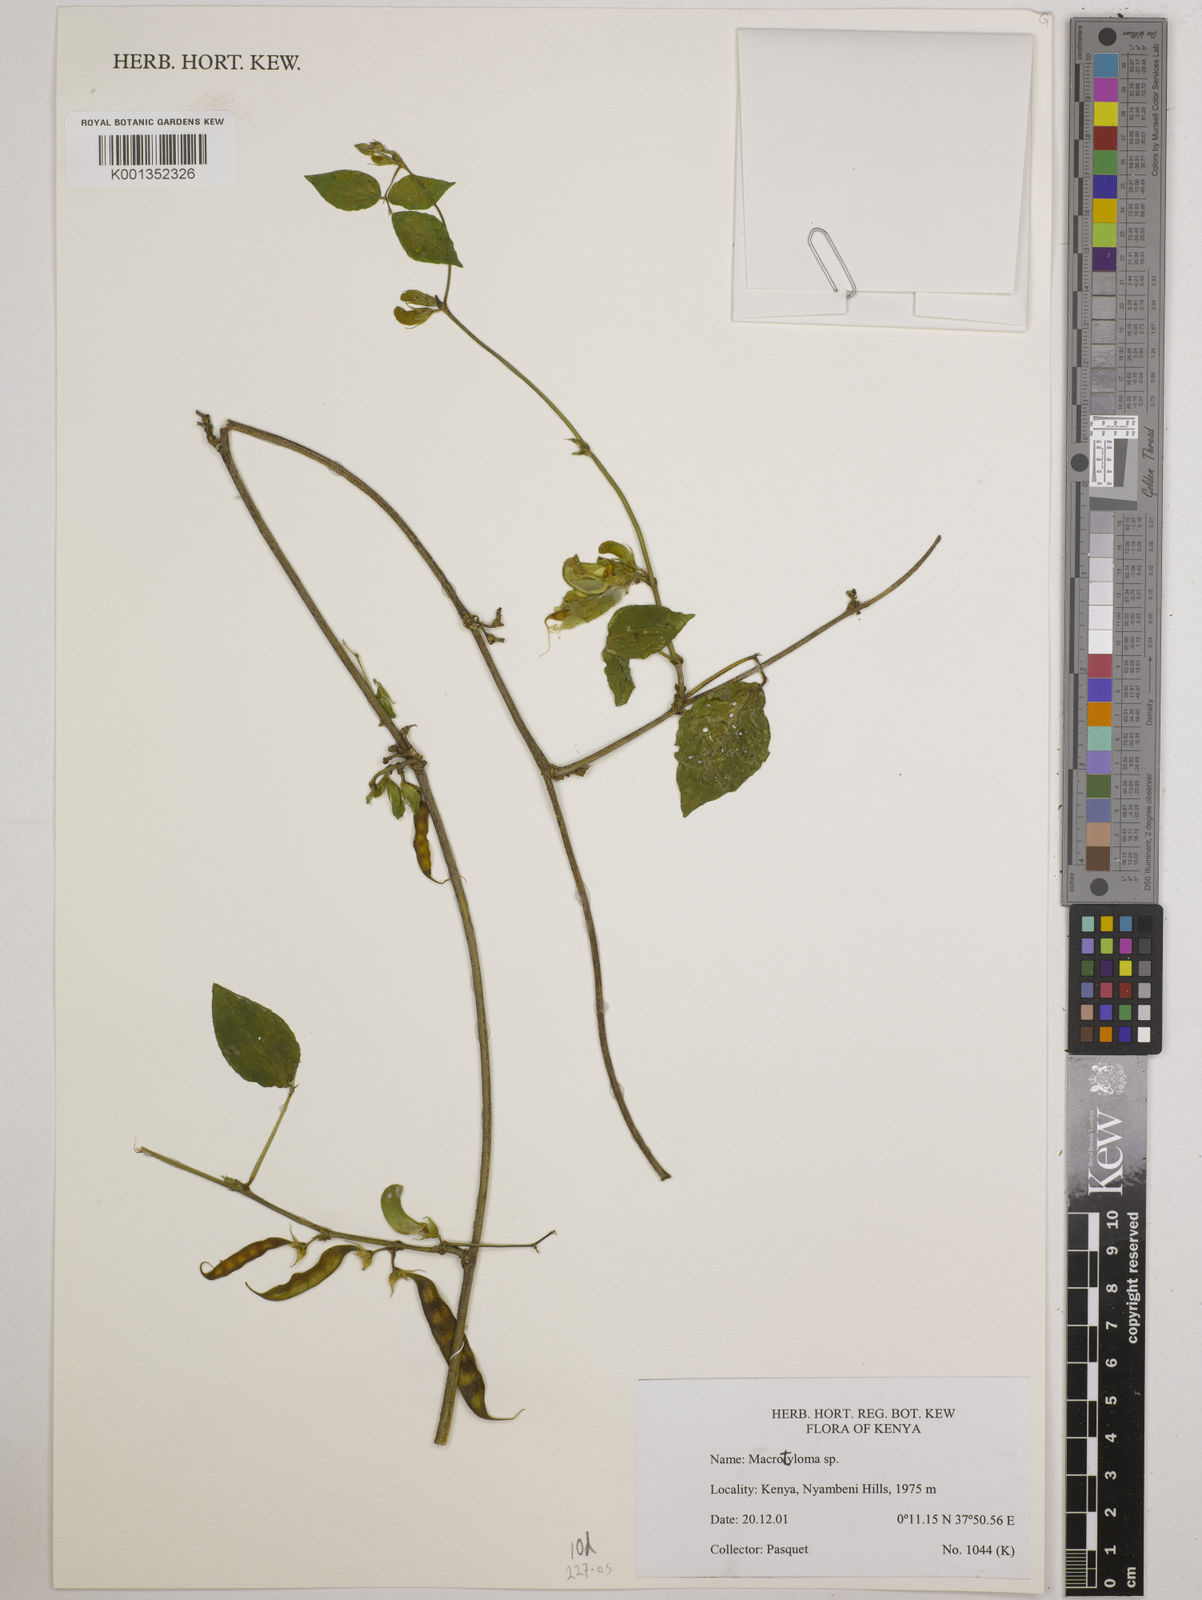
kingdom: Plantae
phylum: Tracheophyta
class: Magnoliopsida
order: Fabales
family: Fabaceae
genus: Macrotyloma
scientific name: Macrotyloma
